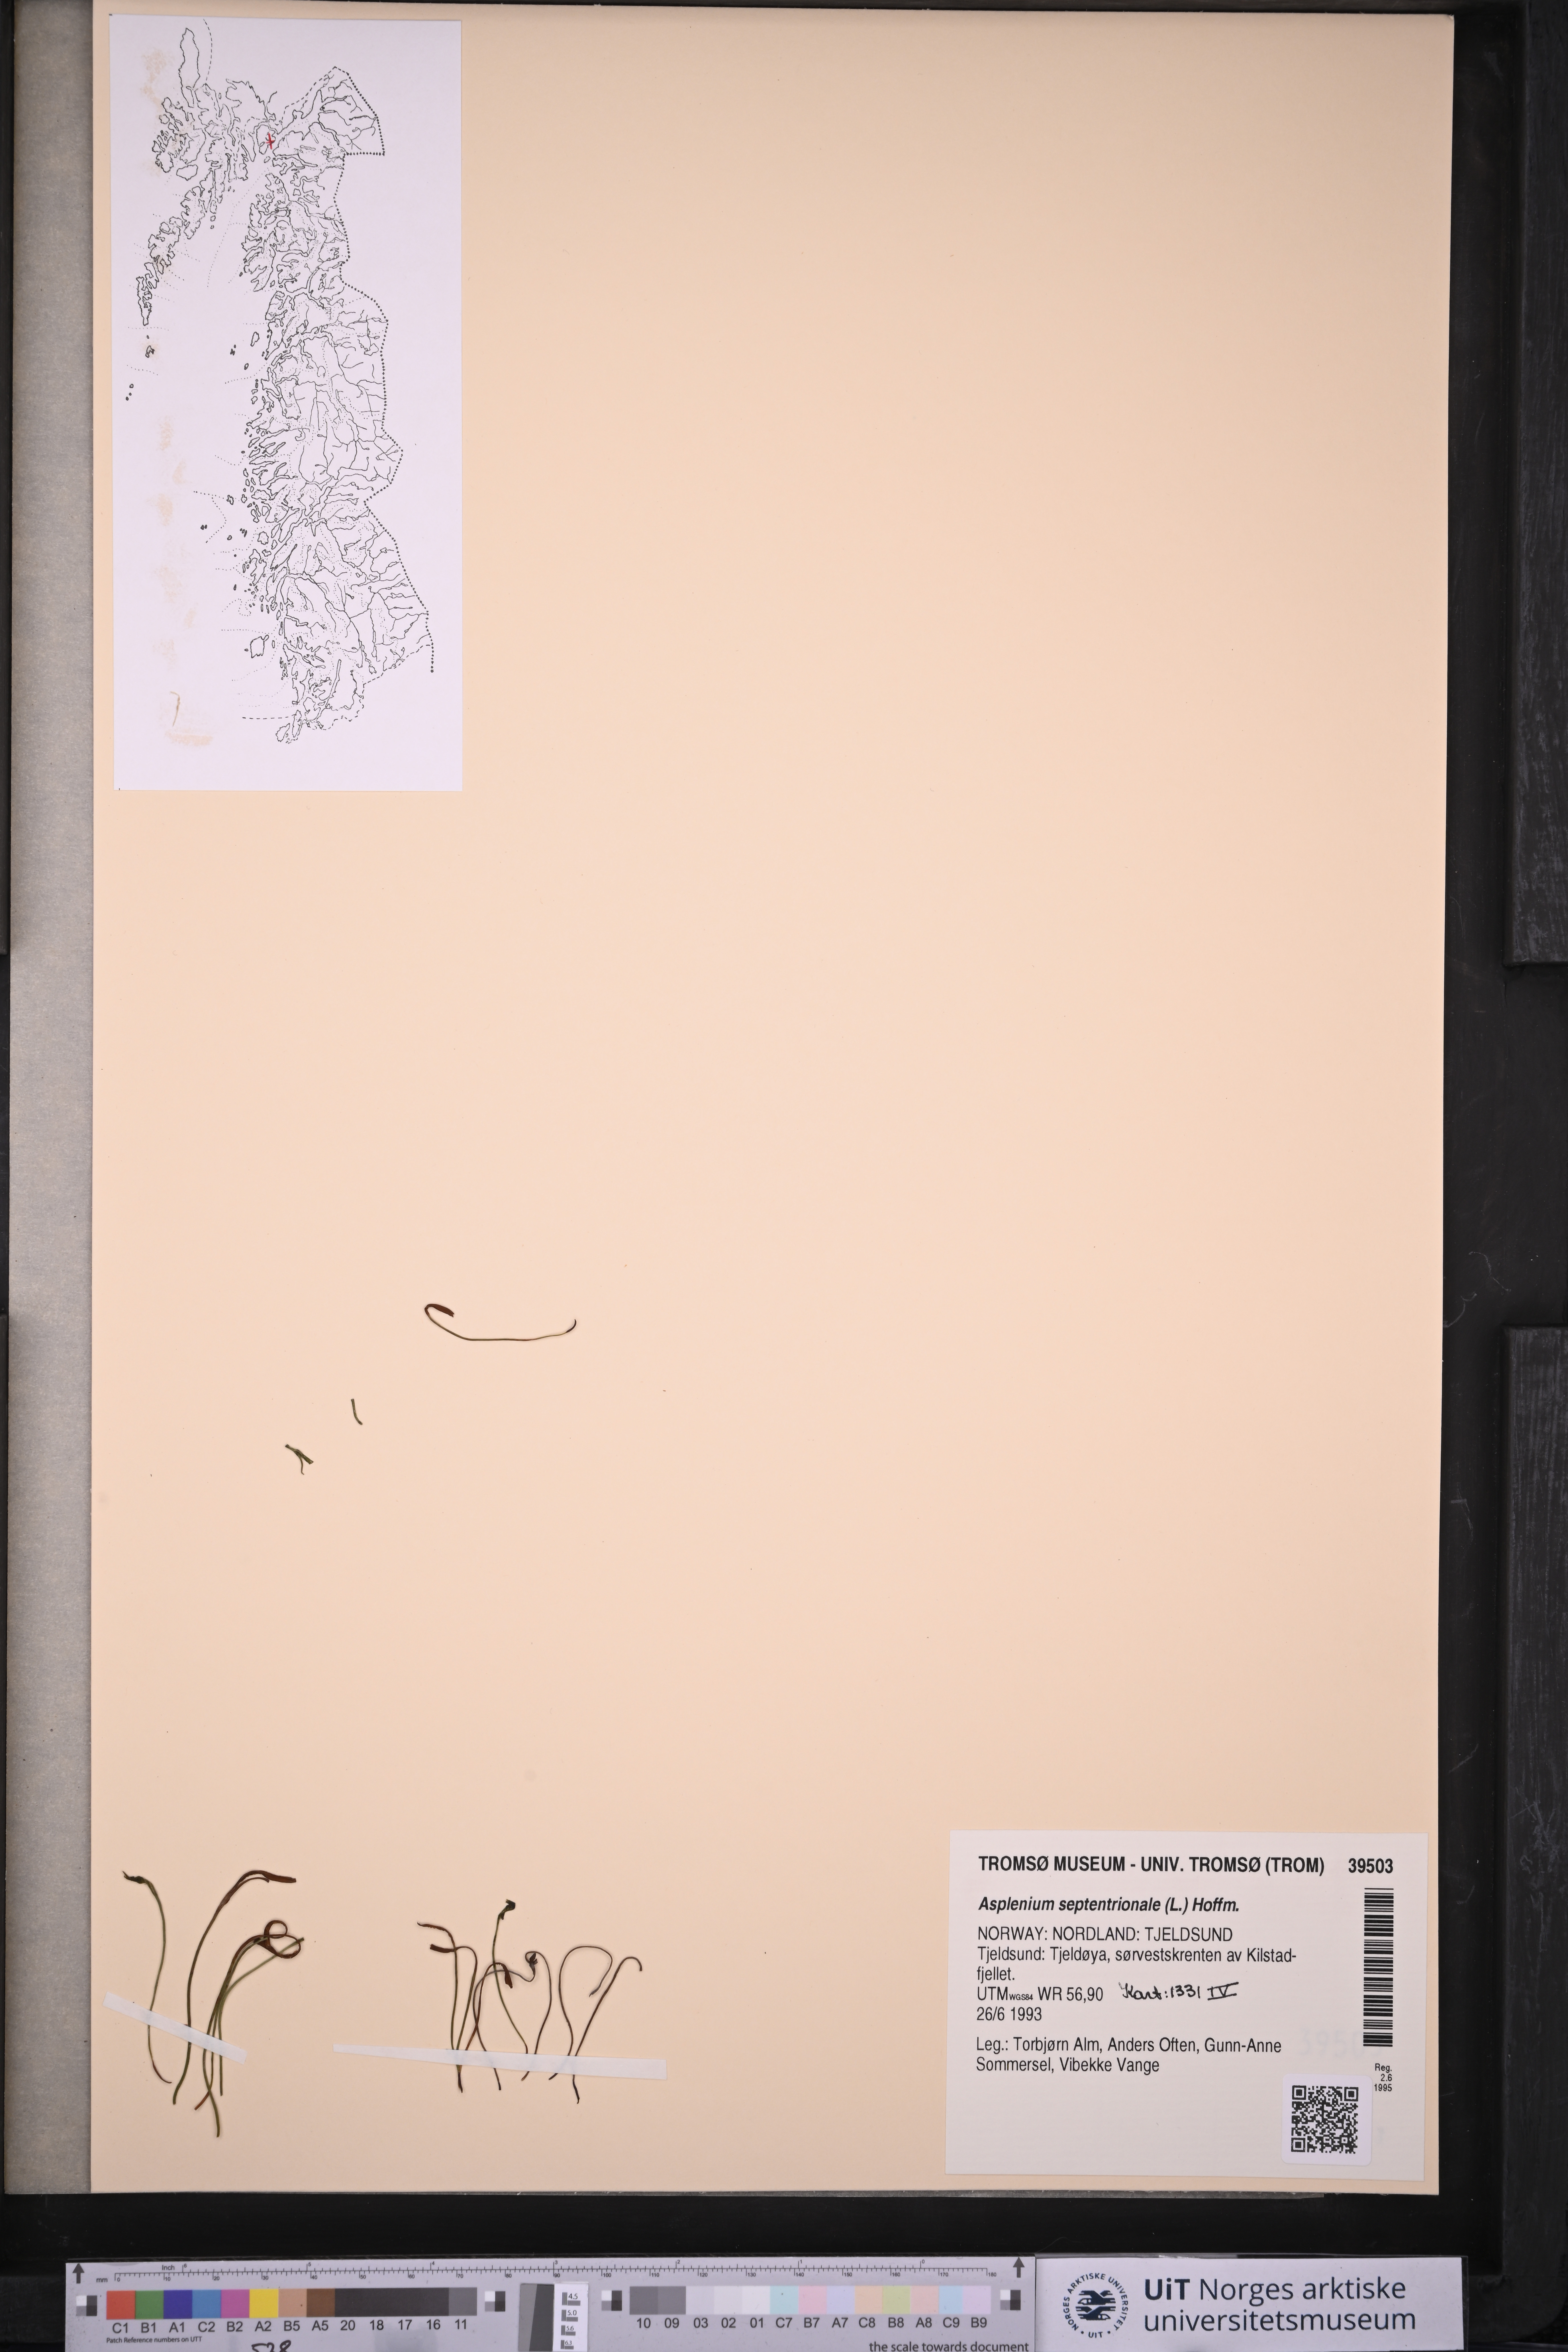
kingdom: Plantae
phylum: Tracheophyta
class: Polypodiopsida
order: Polypodiales
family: Aspleniaceae
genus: Asplenium
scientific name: Asplenium septentrionale
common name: Forked spleenwort
